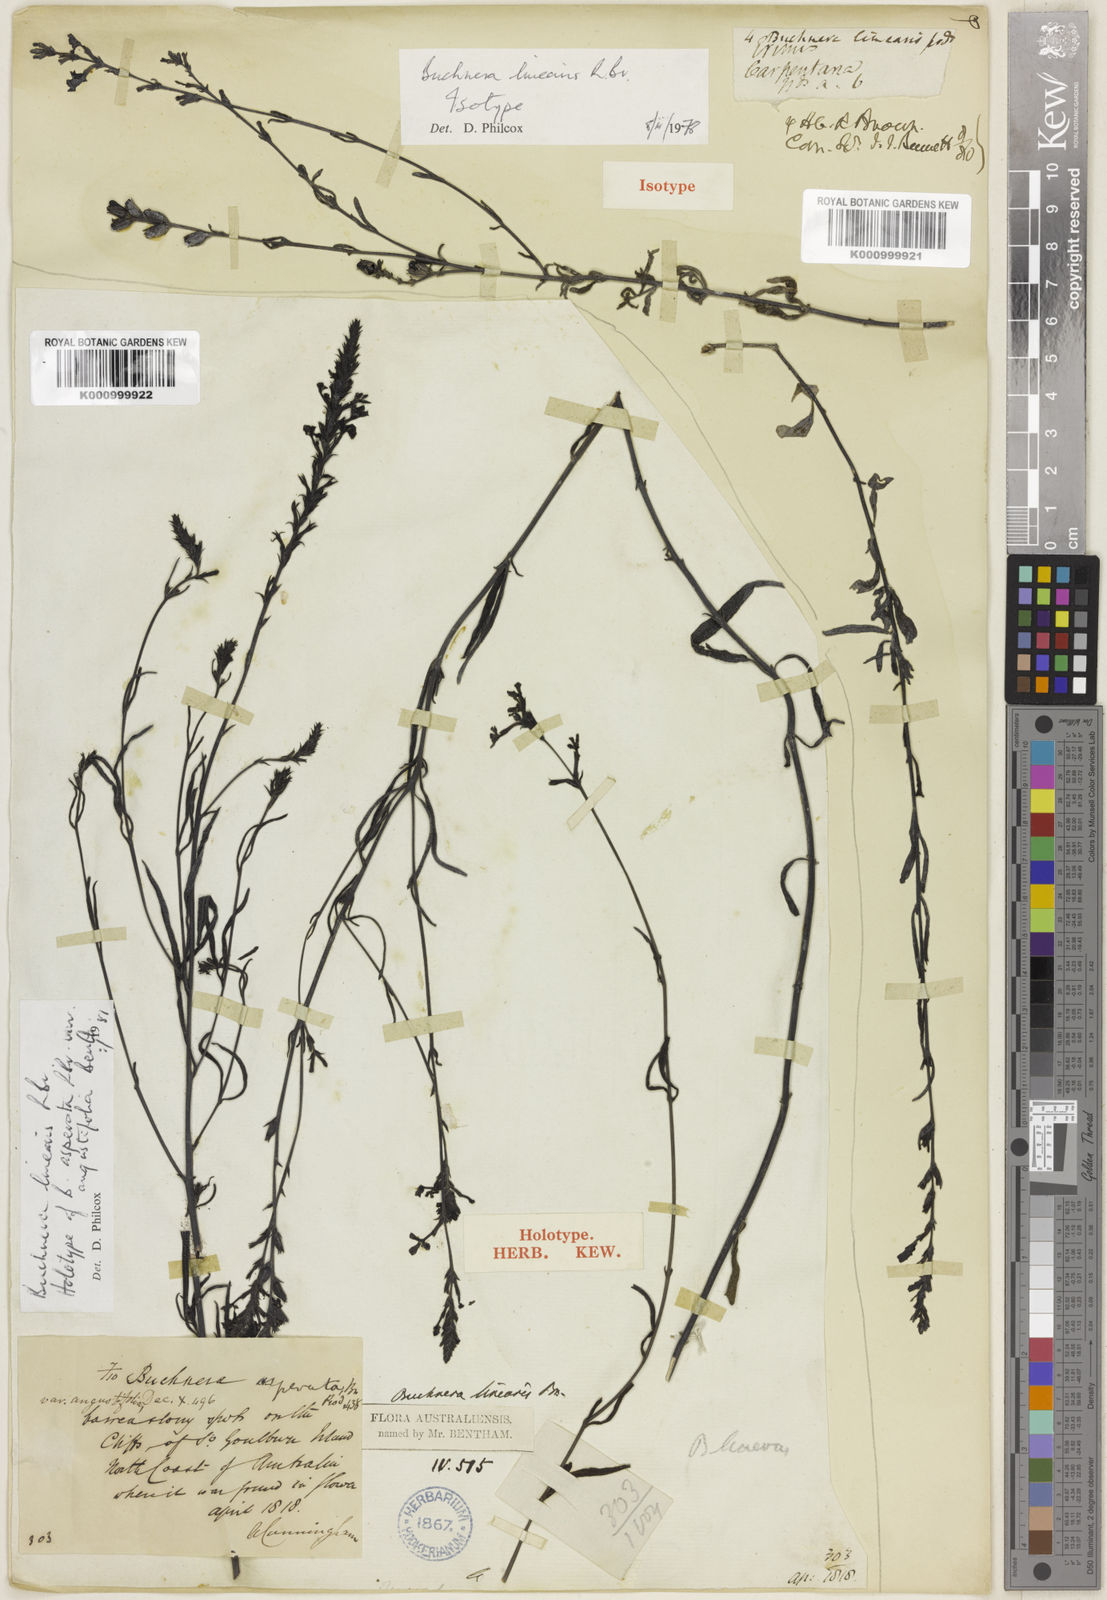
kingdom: Plantae
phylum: Tracheophyta
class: Magnoliopsida
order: Lamiales
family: Orobanchaceae
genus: Buchnera
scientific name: Buchnera linearis
